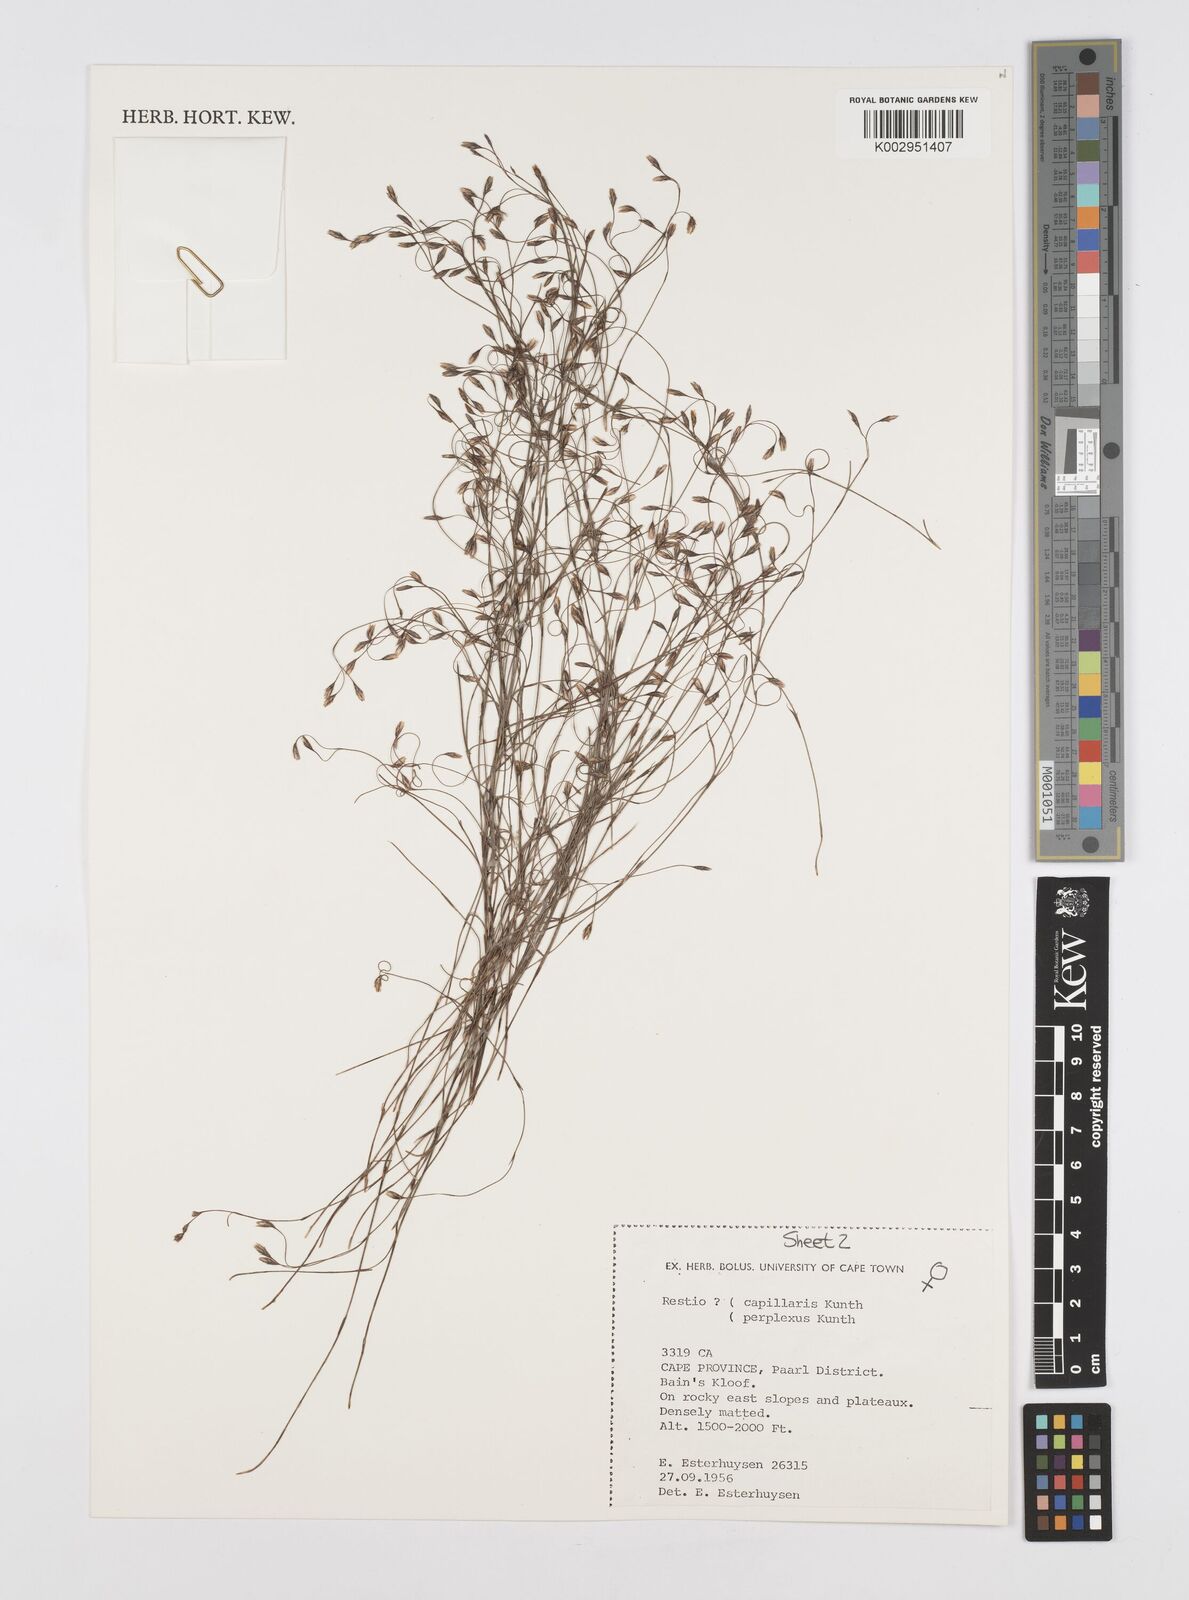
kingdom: Plantae
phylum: Tracheophyta
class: Liliopsida
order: Poales
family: Restionaceae
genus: Restio
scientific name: Restio perplexus
